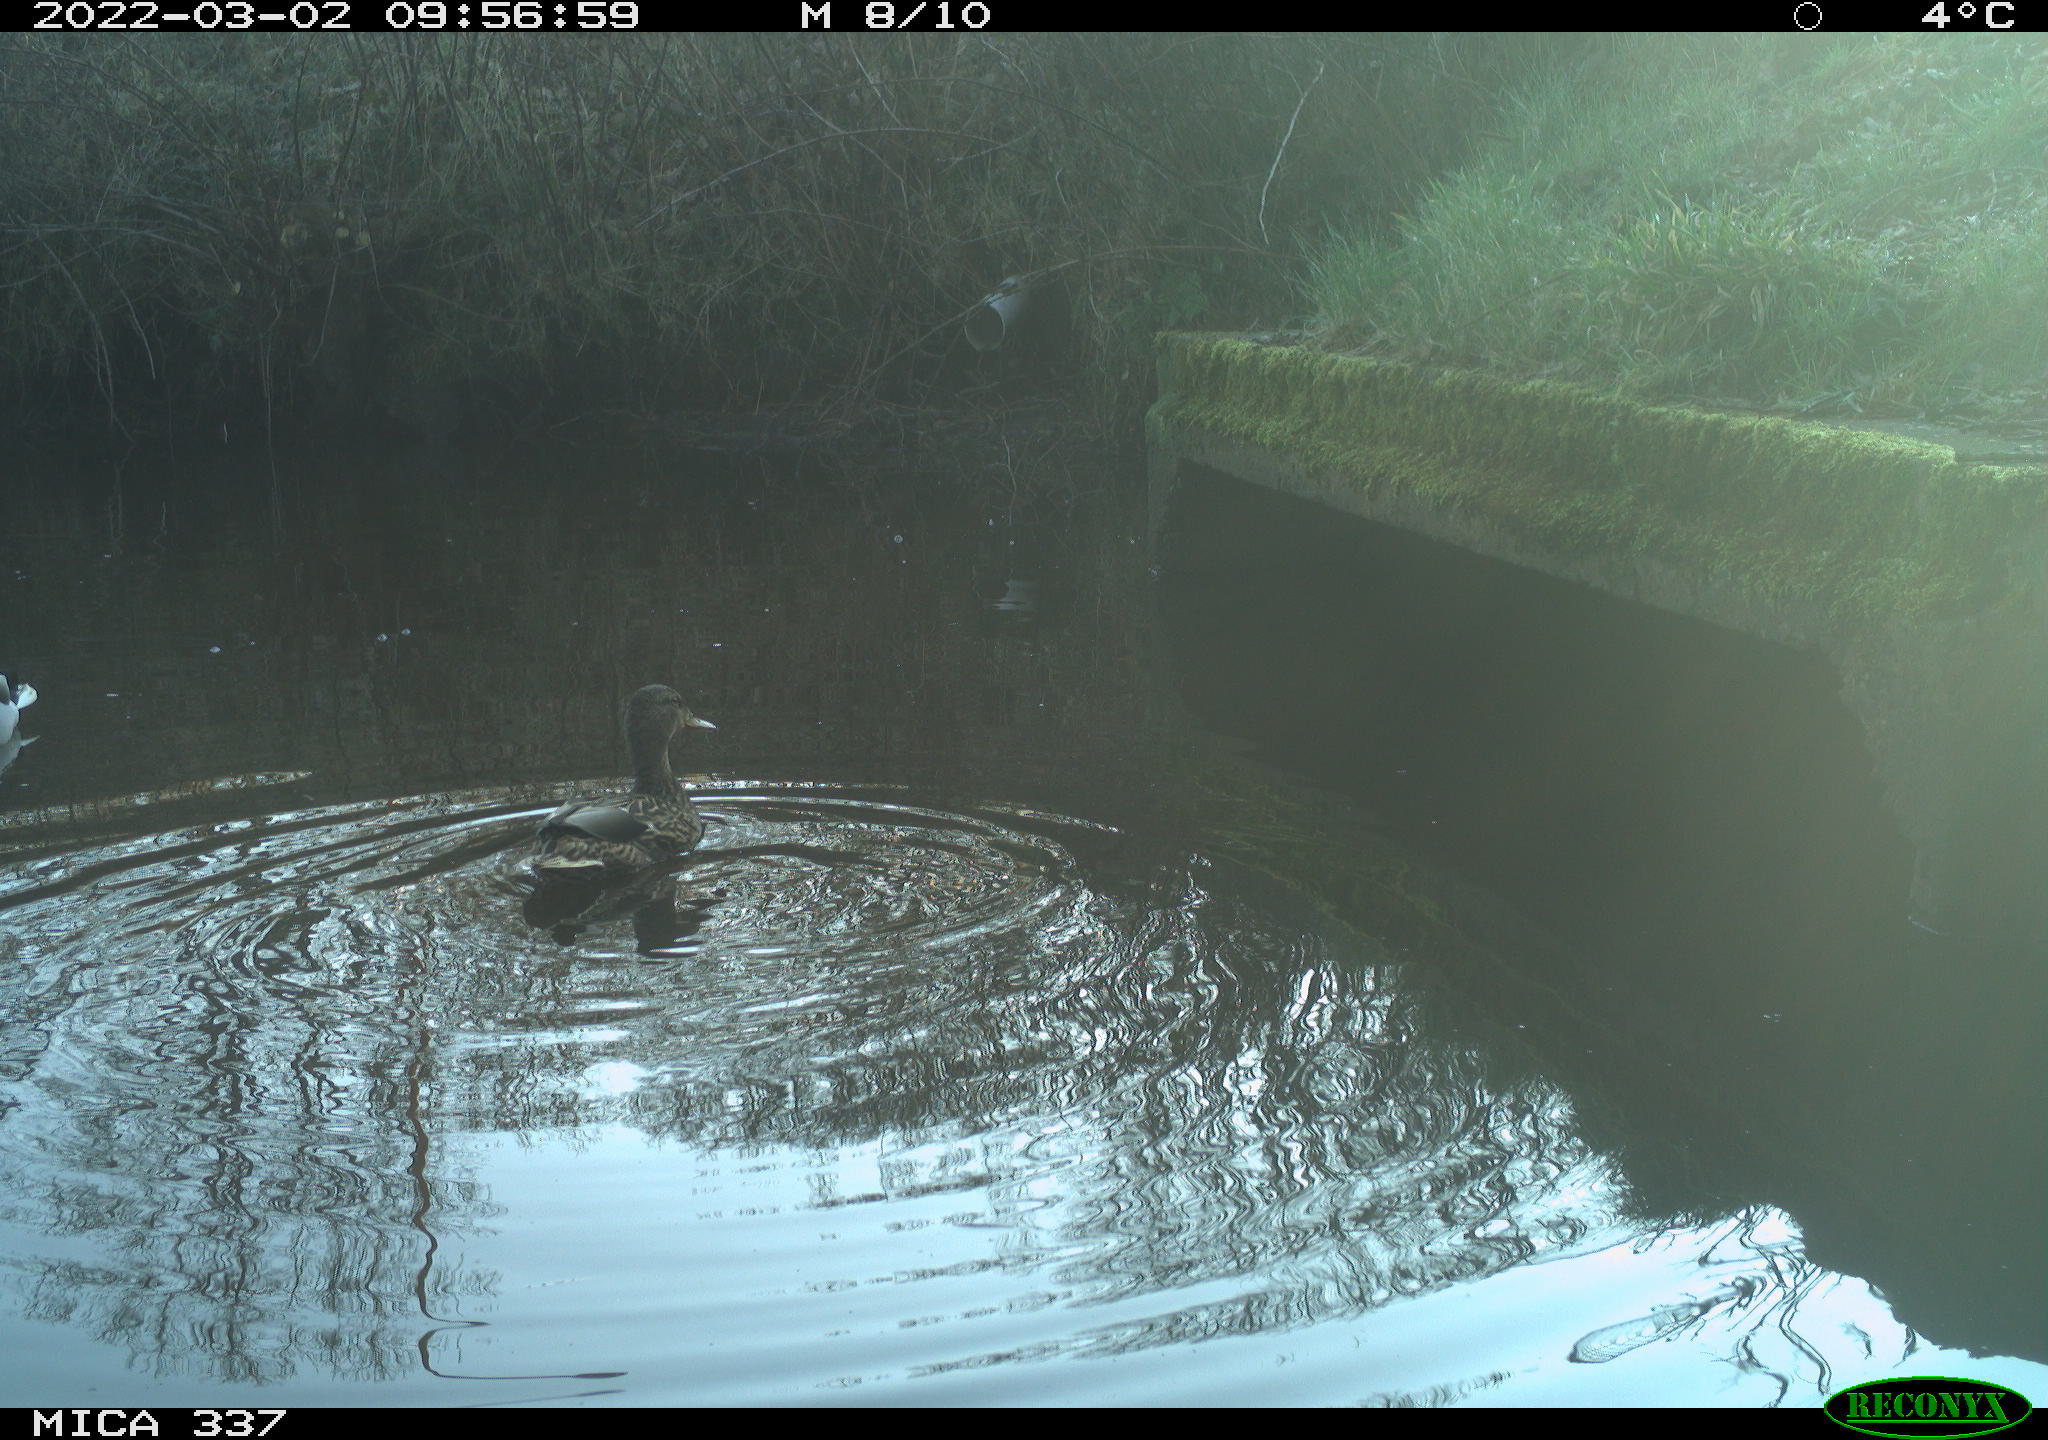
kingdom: Animalia
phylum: Chordata
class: Aves
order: Anseriformes
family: Anatidae
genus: Anas
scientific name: Anas platyrhynchos
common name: Mallard
